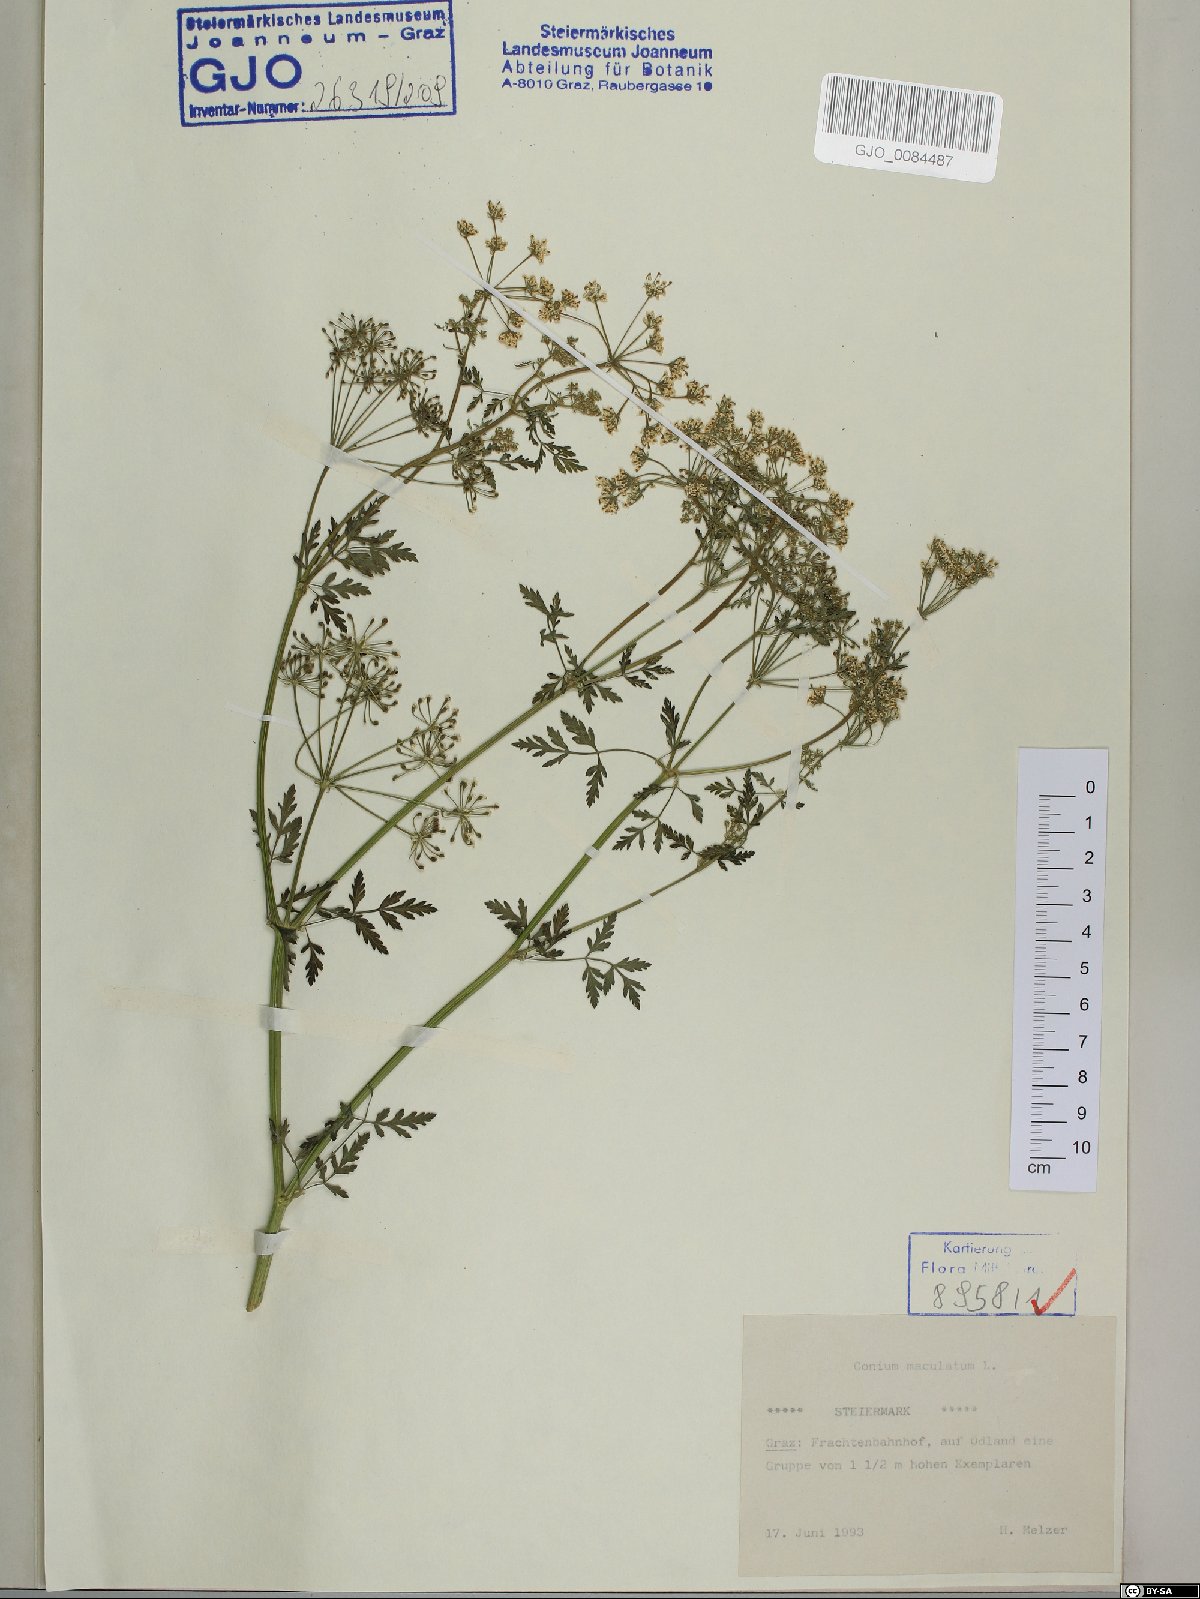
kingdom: Plantae
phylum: Tracheophyta
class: Magnoliopsida
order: Apiales
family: Apiaceae
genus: Conium
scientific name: Conium maculatum
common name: Hemlock
